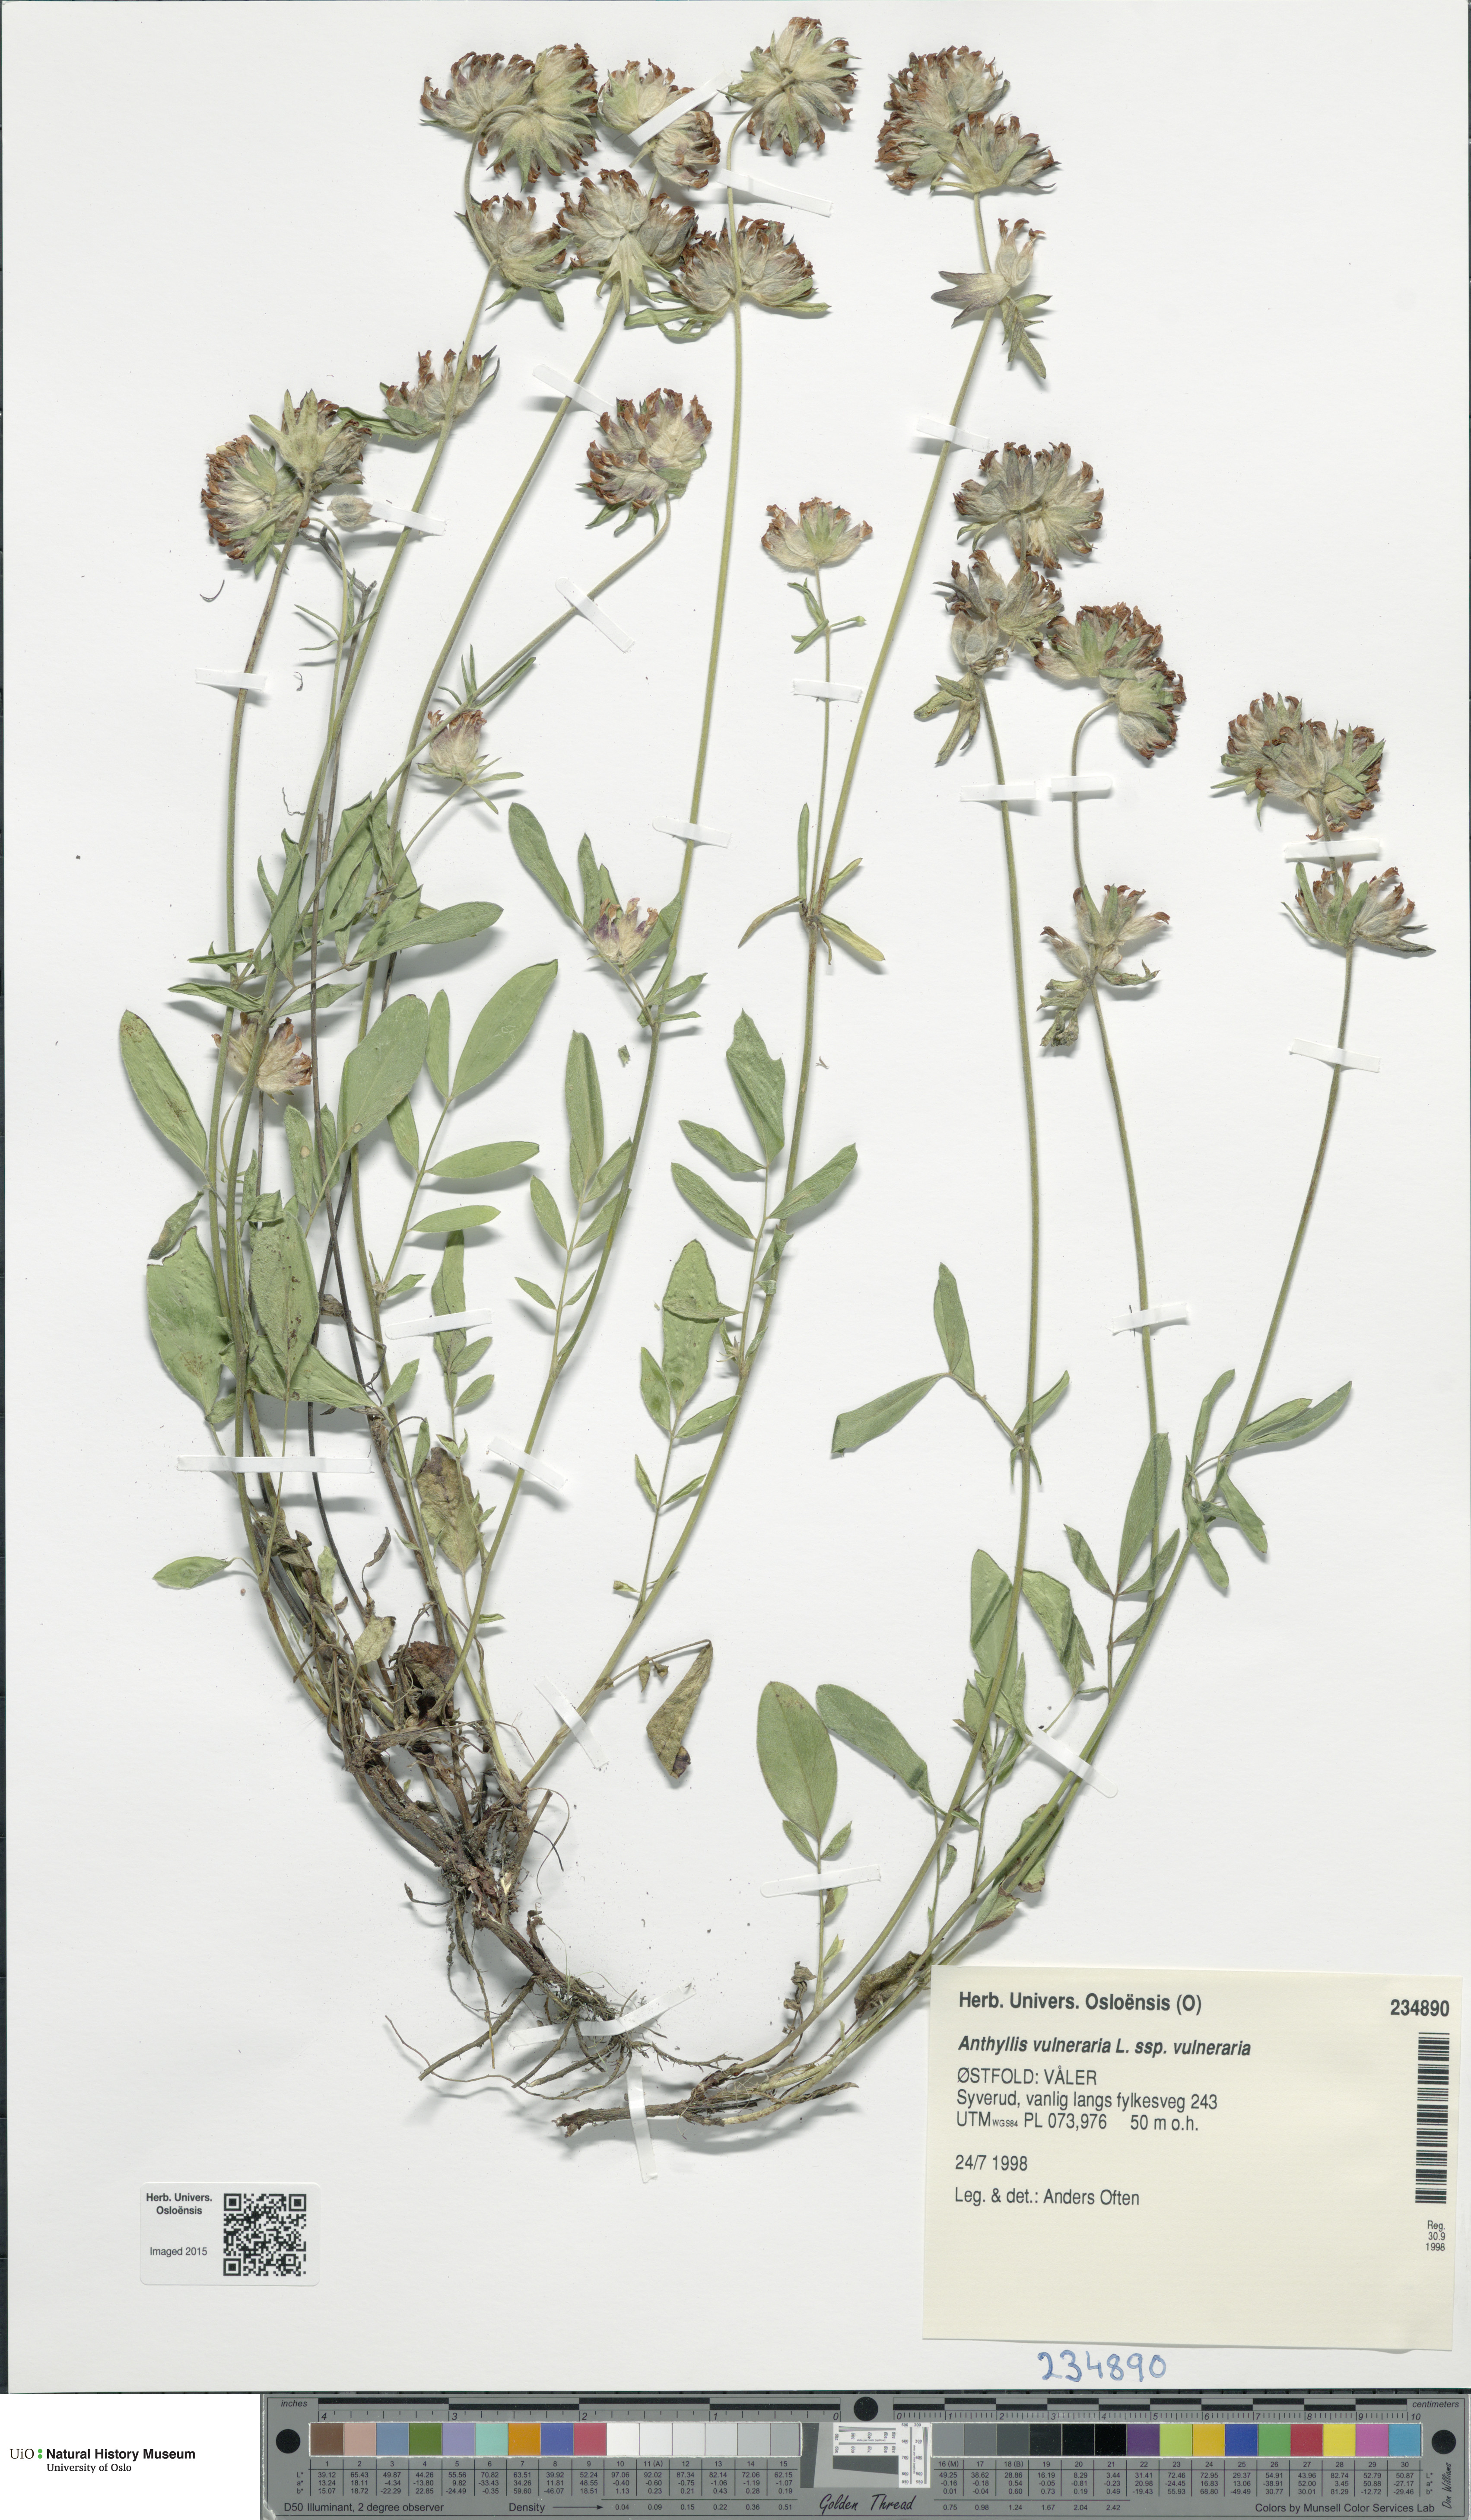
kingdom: Plantae
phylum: Tracheophyta
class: Magnoliopsida
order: Fabales
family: Fabaceae
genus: Anthyllis
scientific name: Anthyllis vulneraria
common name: Kidney vetch
